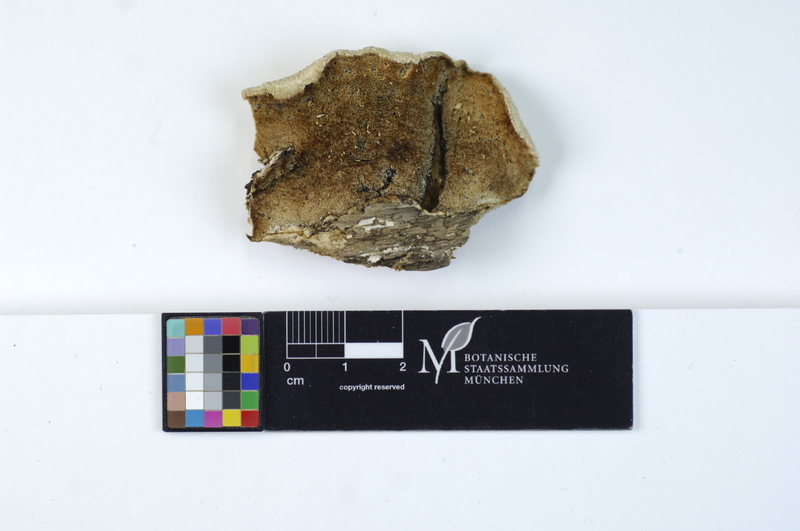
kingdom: Fungi
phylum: Basidiomycota
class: Agaricomycetes
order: Polyporales
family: Polyporaceae
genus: Cyanosporus
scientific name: Cyanosporus subcaesius
